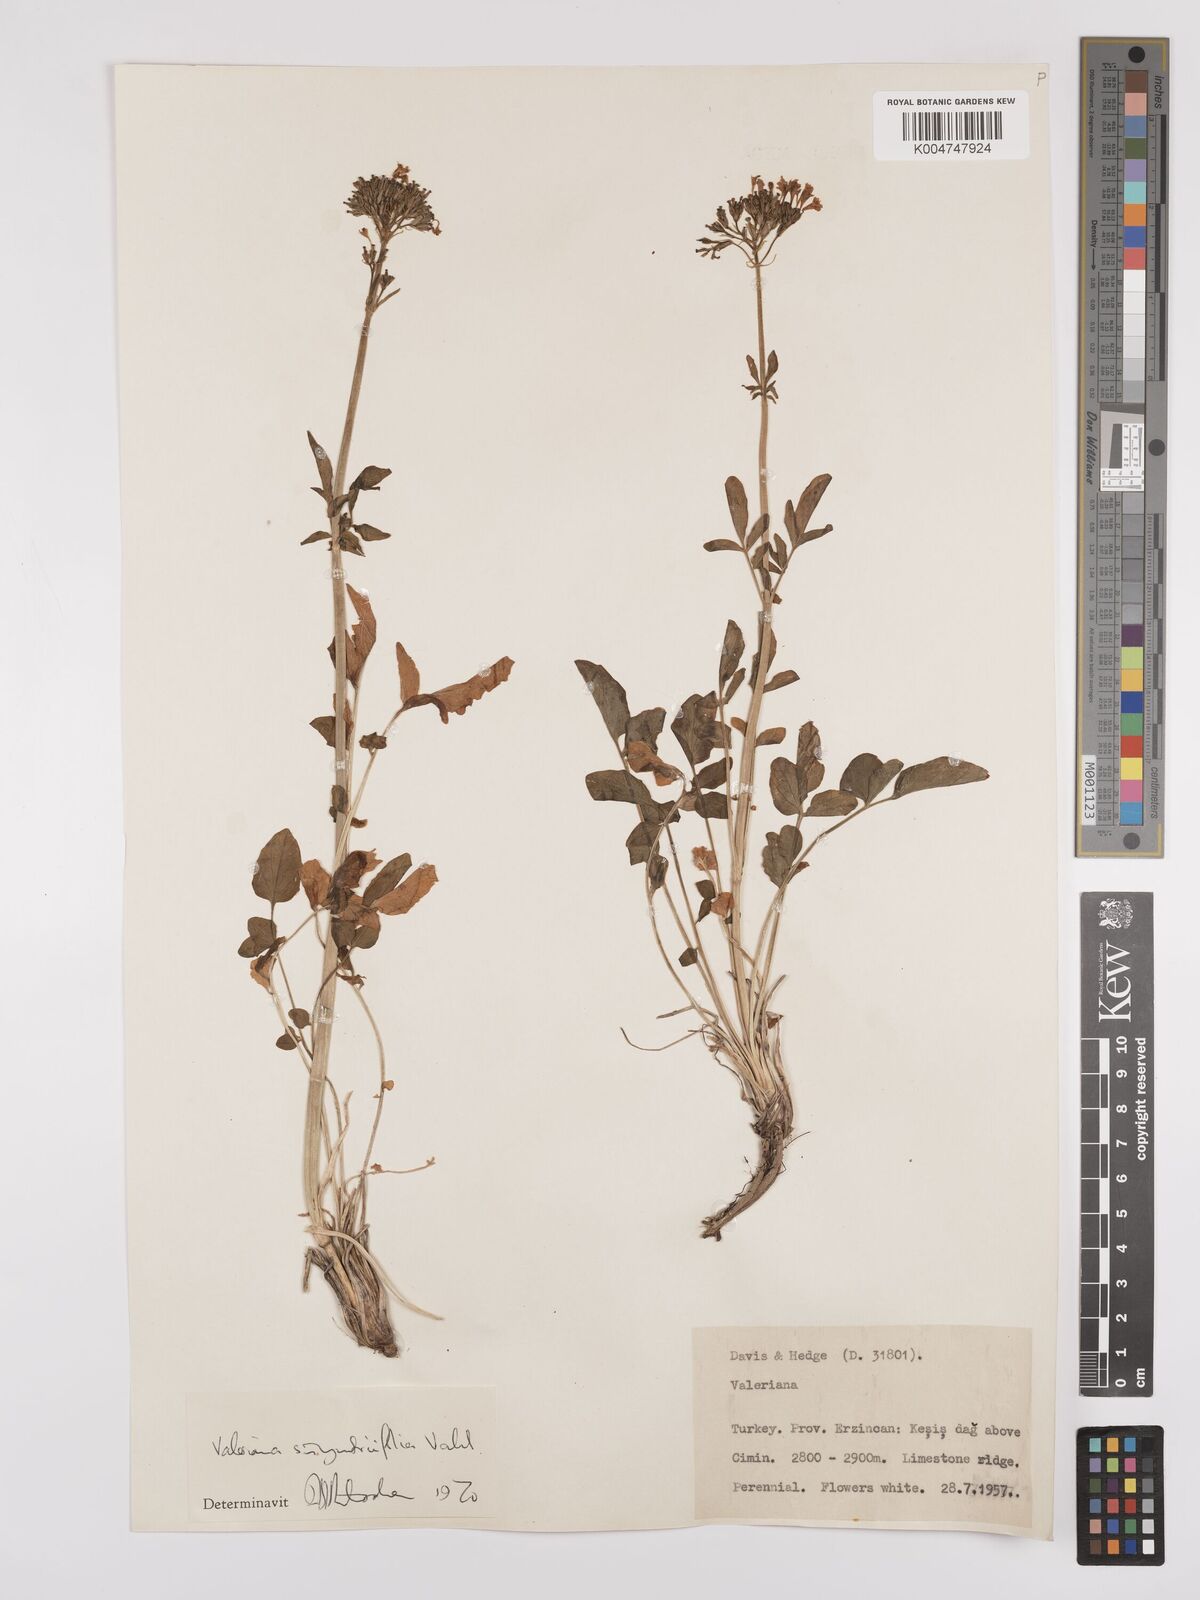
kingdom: Plantae
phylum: Tracheophyta
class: Magnoliopsida
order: Dipsacales
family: Caprifoliaceae
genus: Valeriana
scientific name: Valeriana
